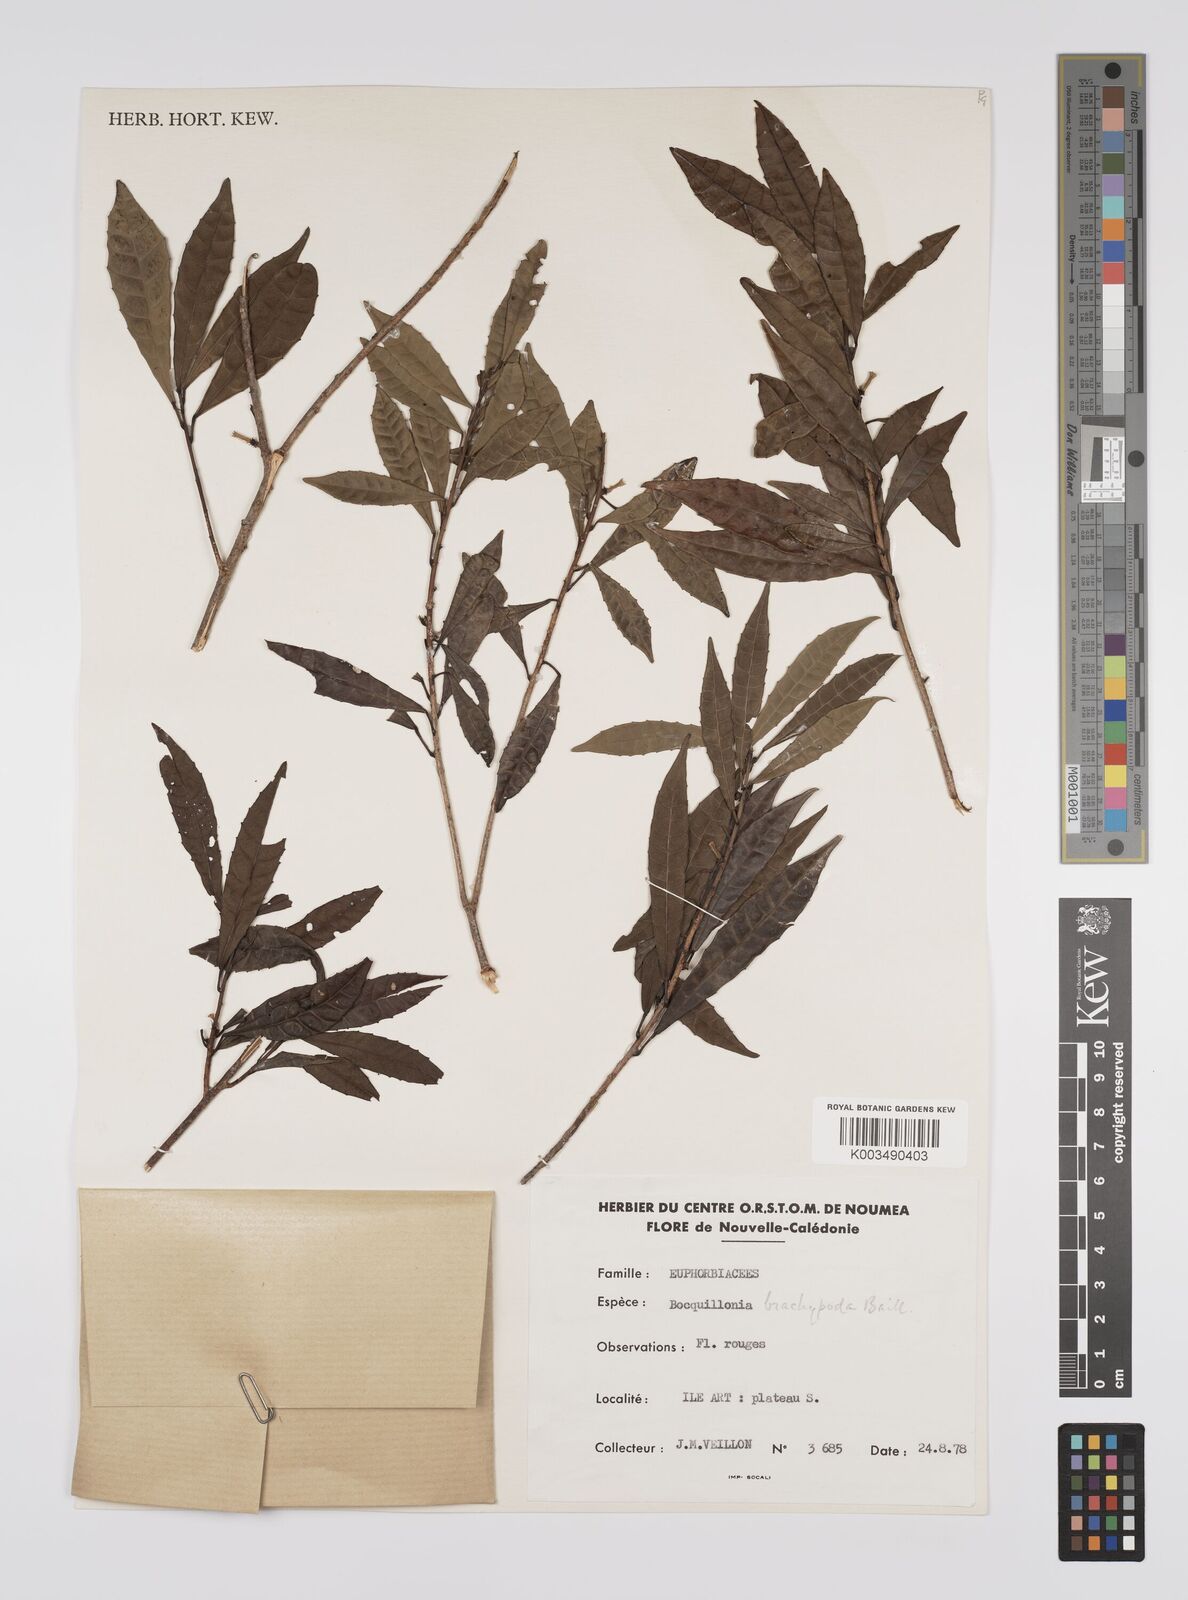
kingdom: Plantae
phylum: Tracheophyta
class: Magnoliopsida
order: Malpighiales
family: Euphorbiaceae
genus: Bocquillonia
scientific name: Bocquillonia brachypoda
